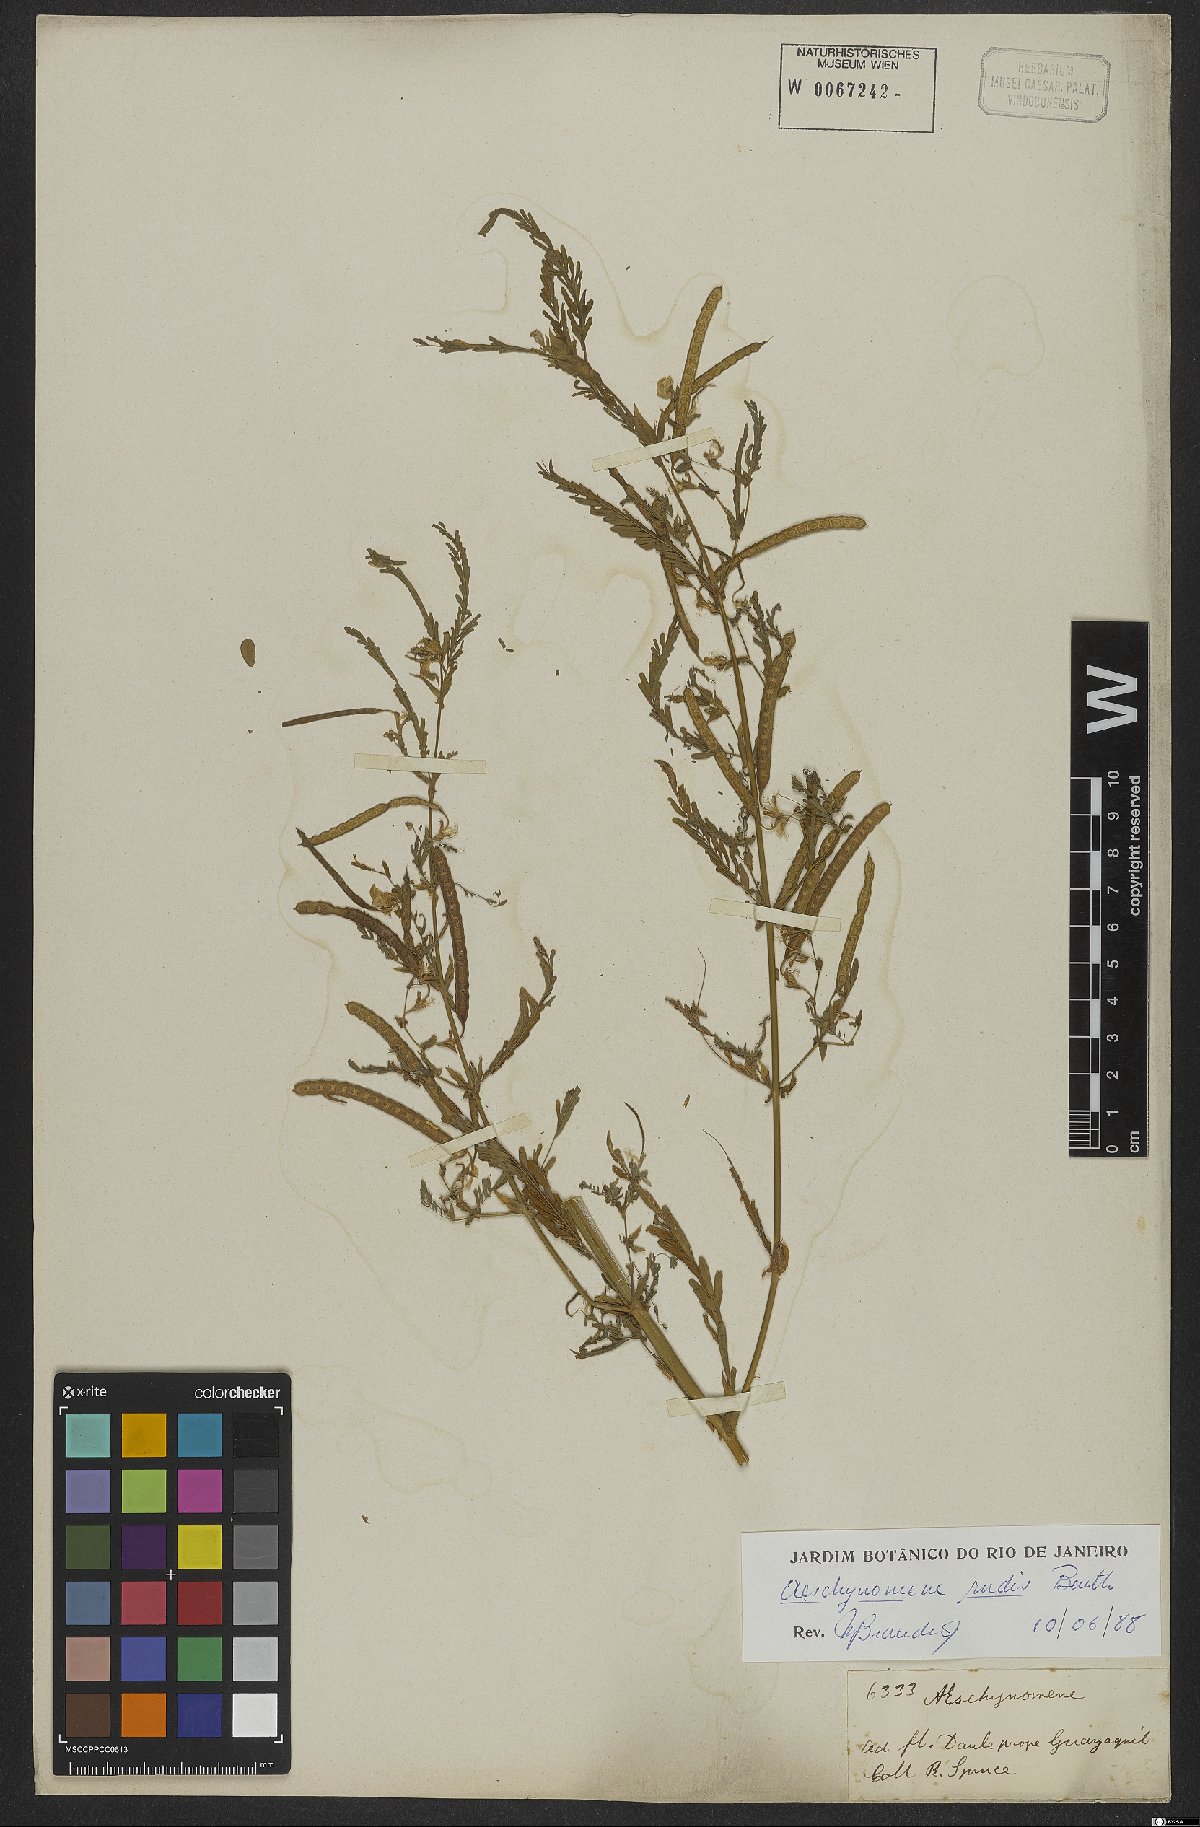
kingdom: Plantae
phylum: Tracheophyta
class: Magnoliopsida
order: Fabales
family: Fabaceae
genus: Aeschynomene
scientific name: Aeschynomene rudis
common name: Rough joint-vetch
